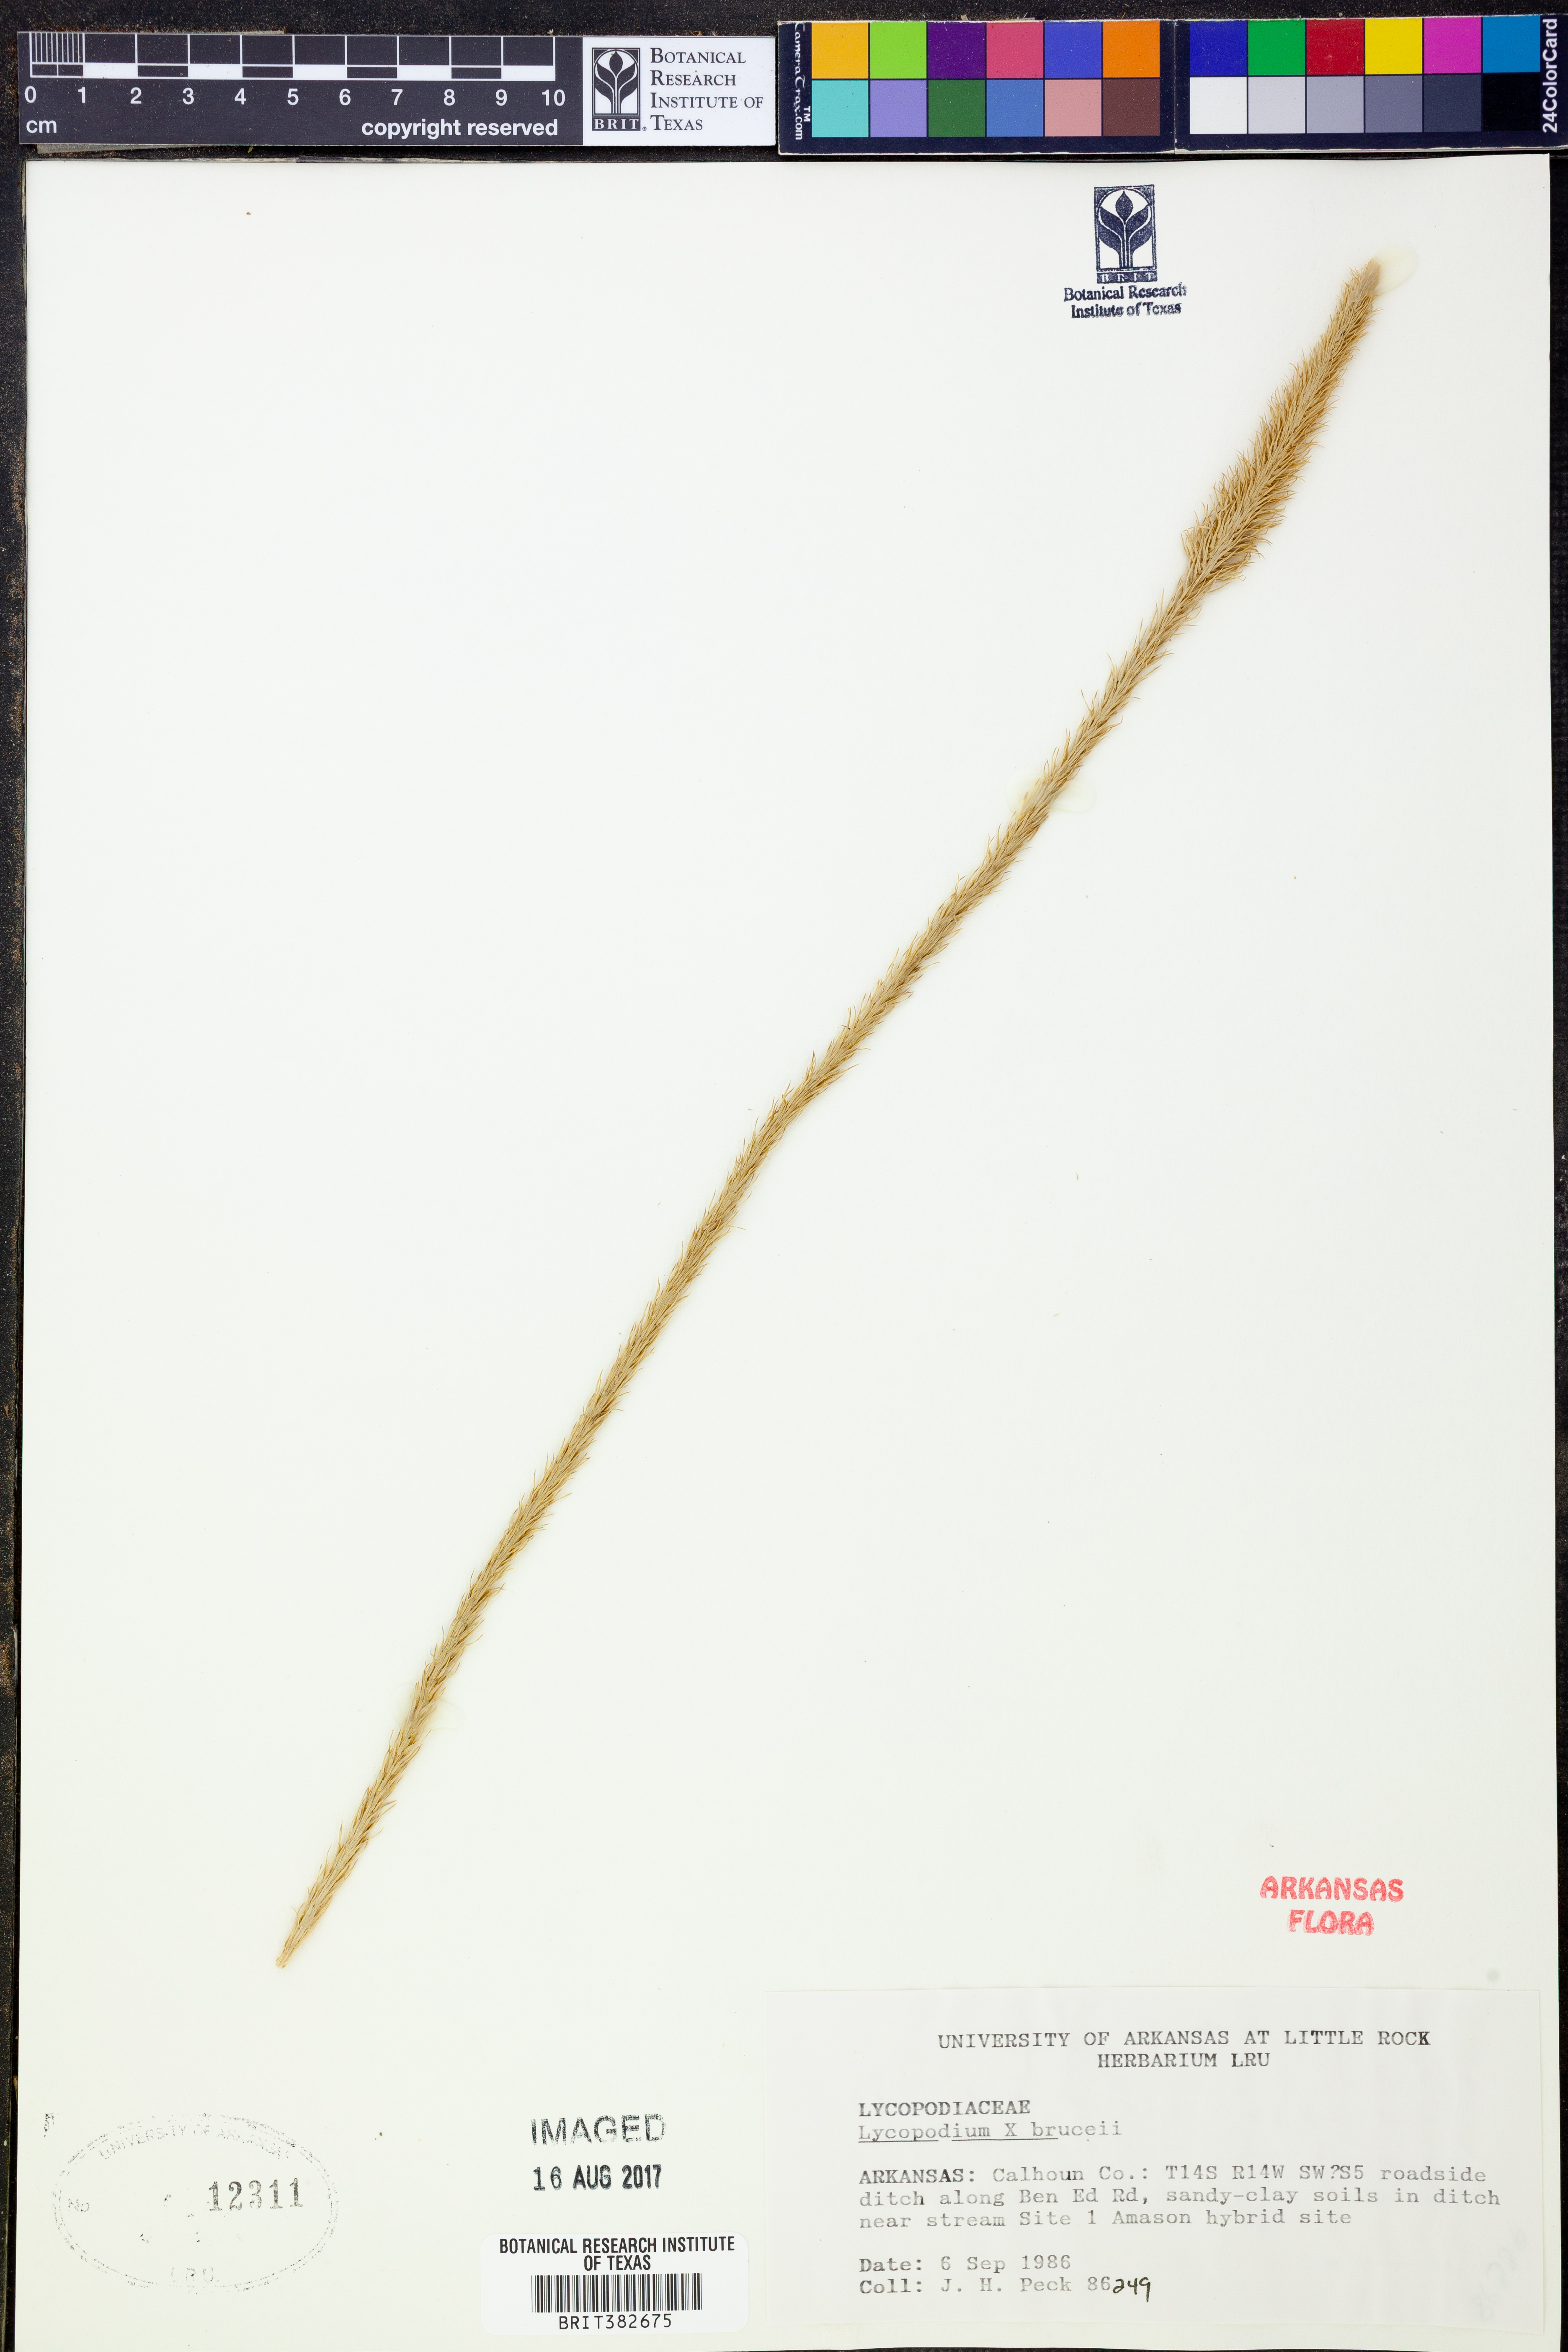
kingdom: Plantae
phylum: Tracheophyta
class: Lycopodiopsida
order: Lycopodiales
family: Lycopodiaceae
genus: Lycopodiella
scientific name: Lycopodiella brucei
